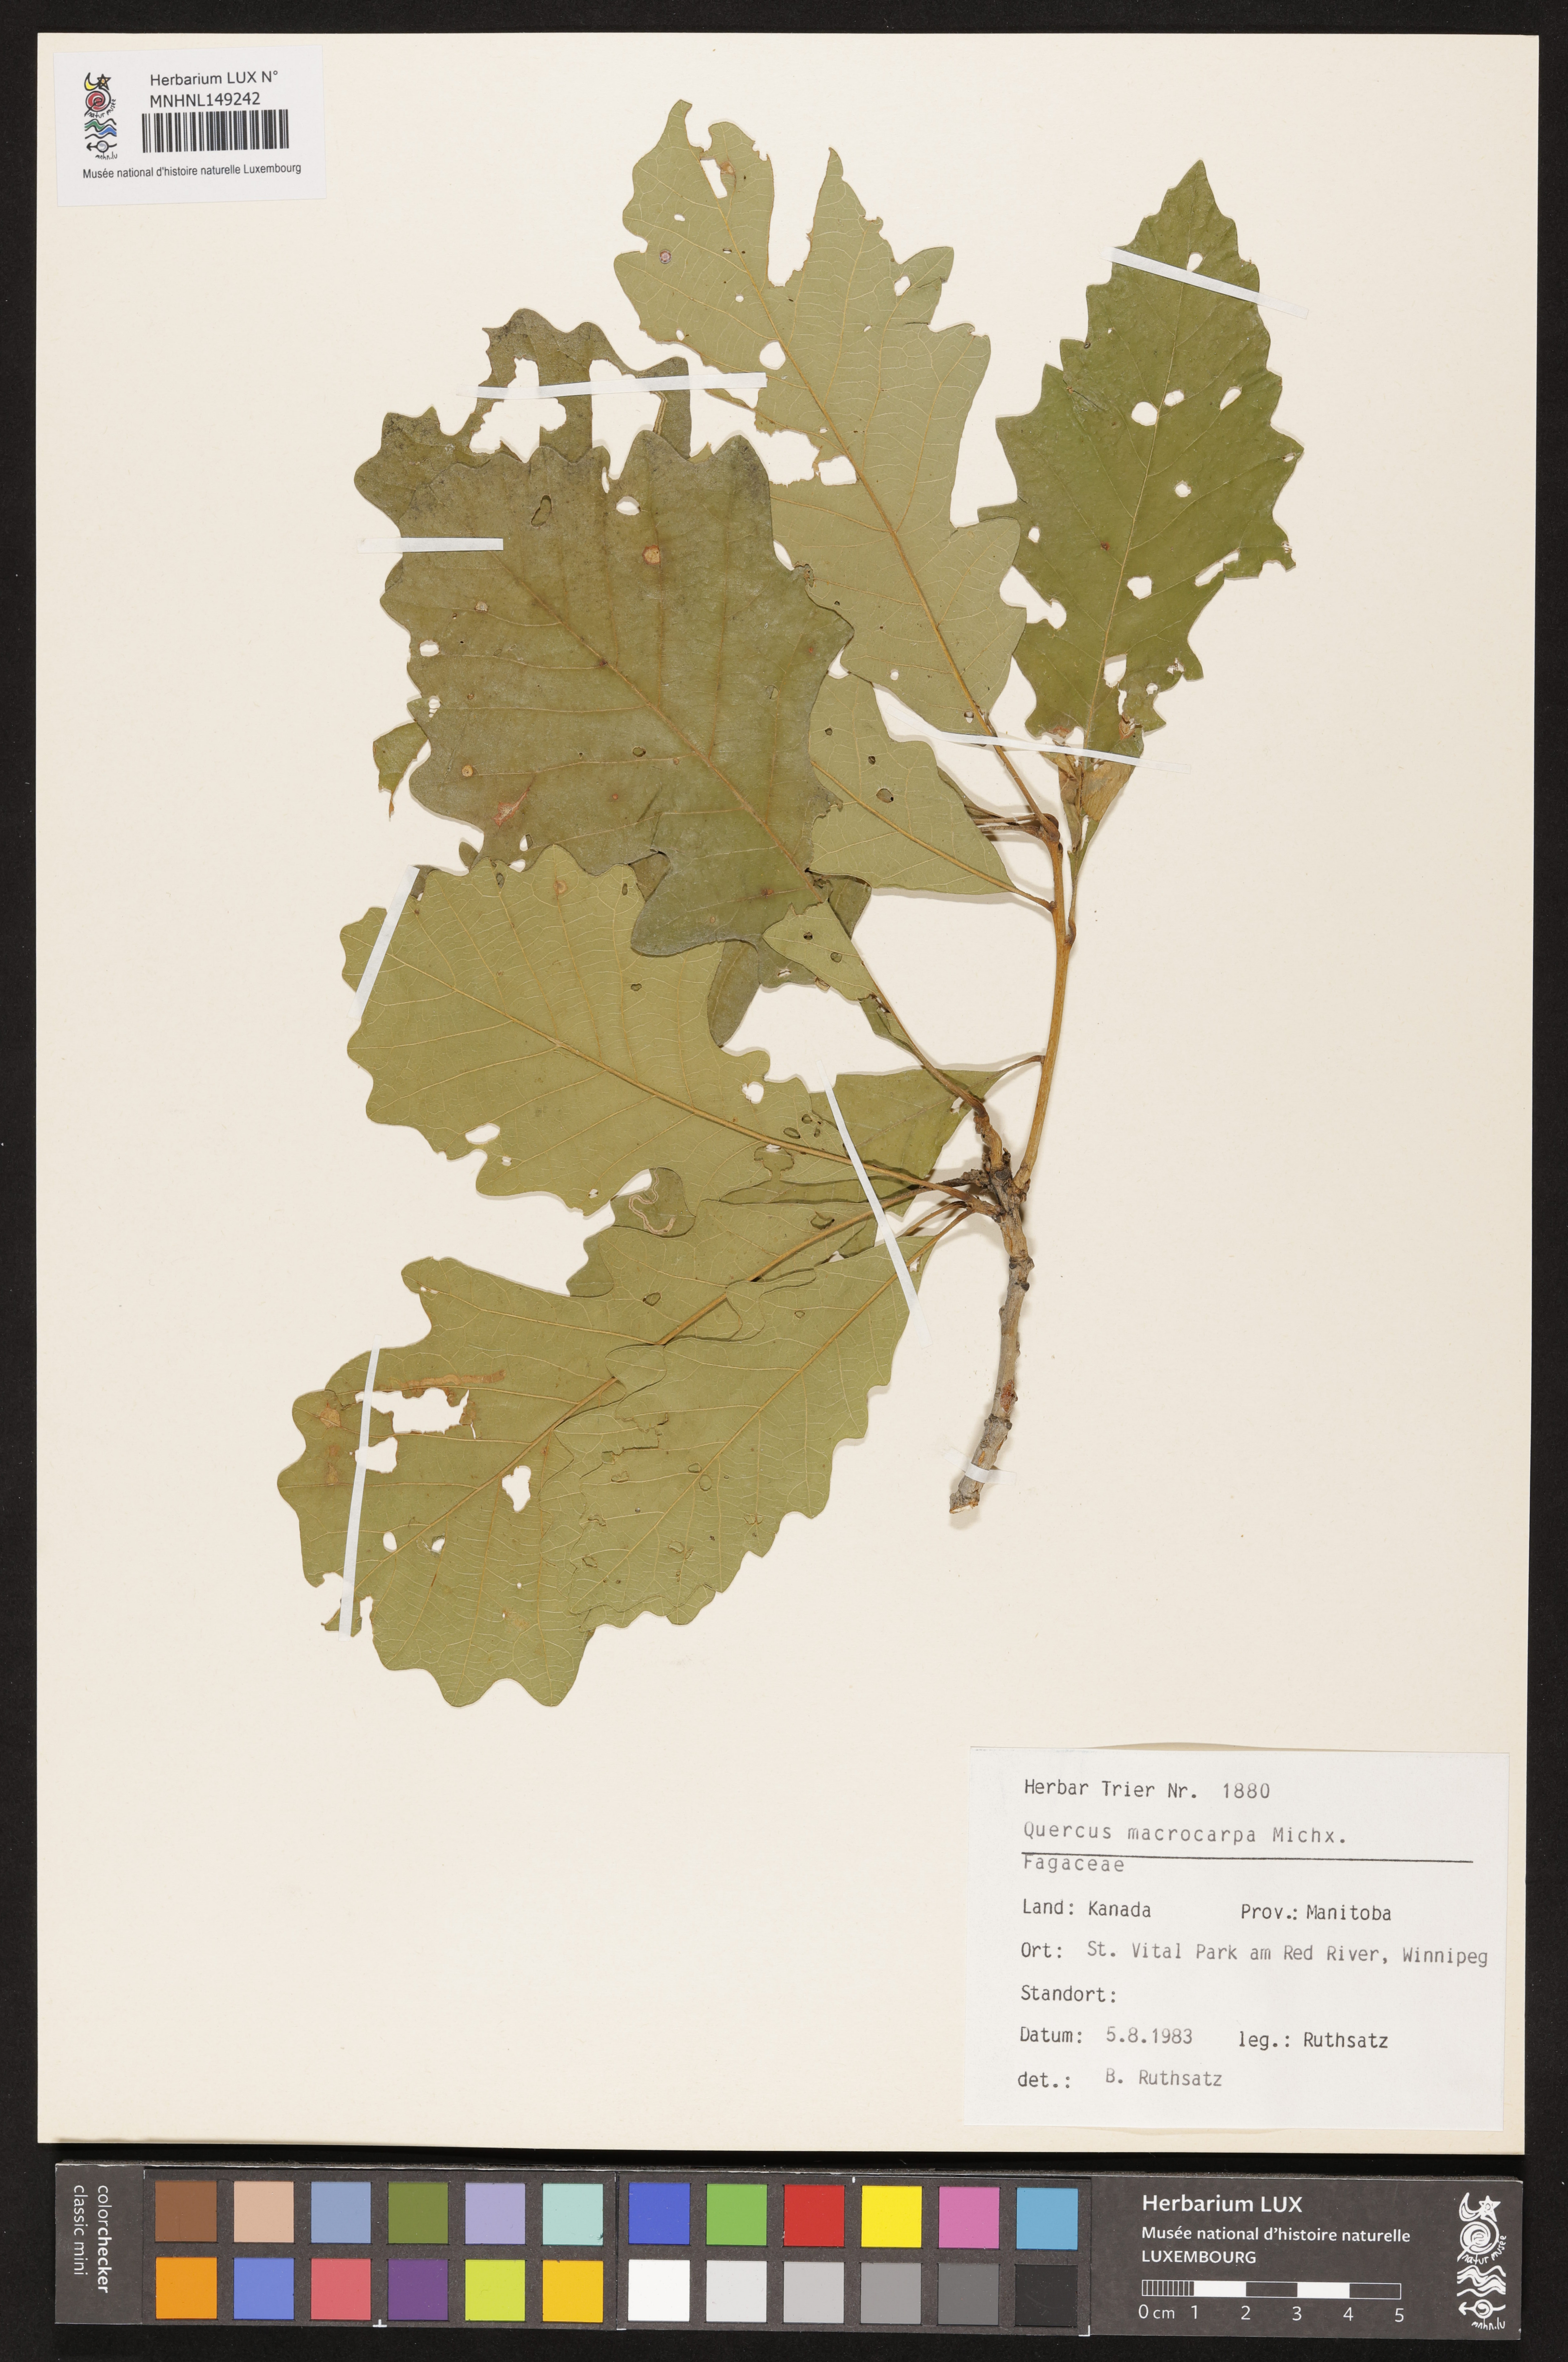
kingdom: Plantae
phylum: Tracheophyta
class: Magnoliopsida
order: Fagales
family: Fagaceae
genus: Quercus
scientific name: Quercus macrocarpa
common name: Bur oak
